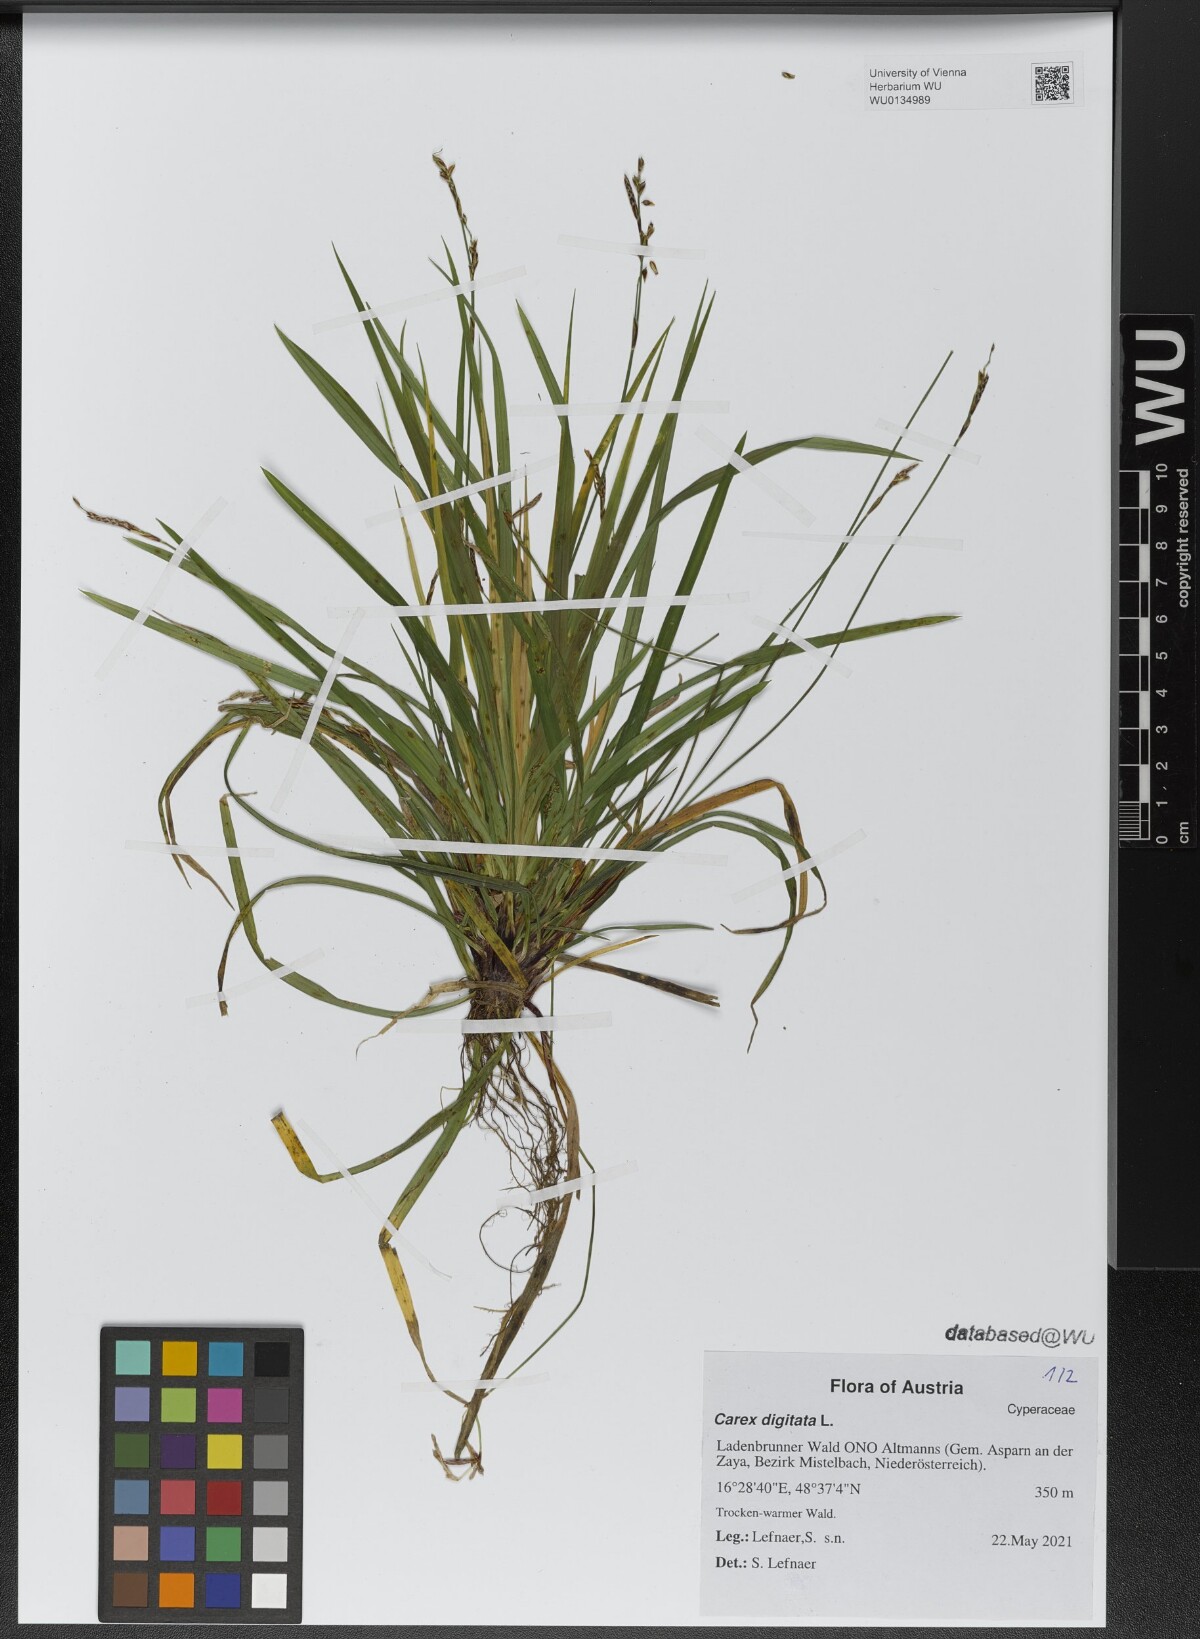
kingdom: Plantae
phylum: Tracheophyta
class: Liliopsida
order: Poales
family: Cyperaceae
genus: Carex
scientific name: Carex digitata
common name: Fingered sedge
